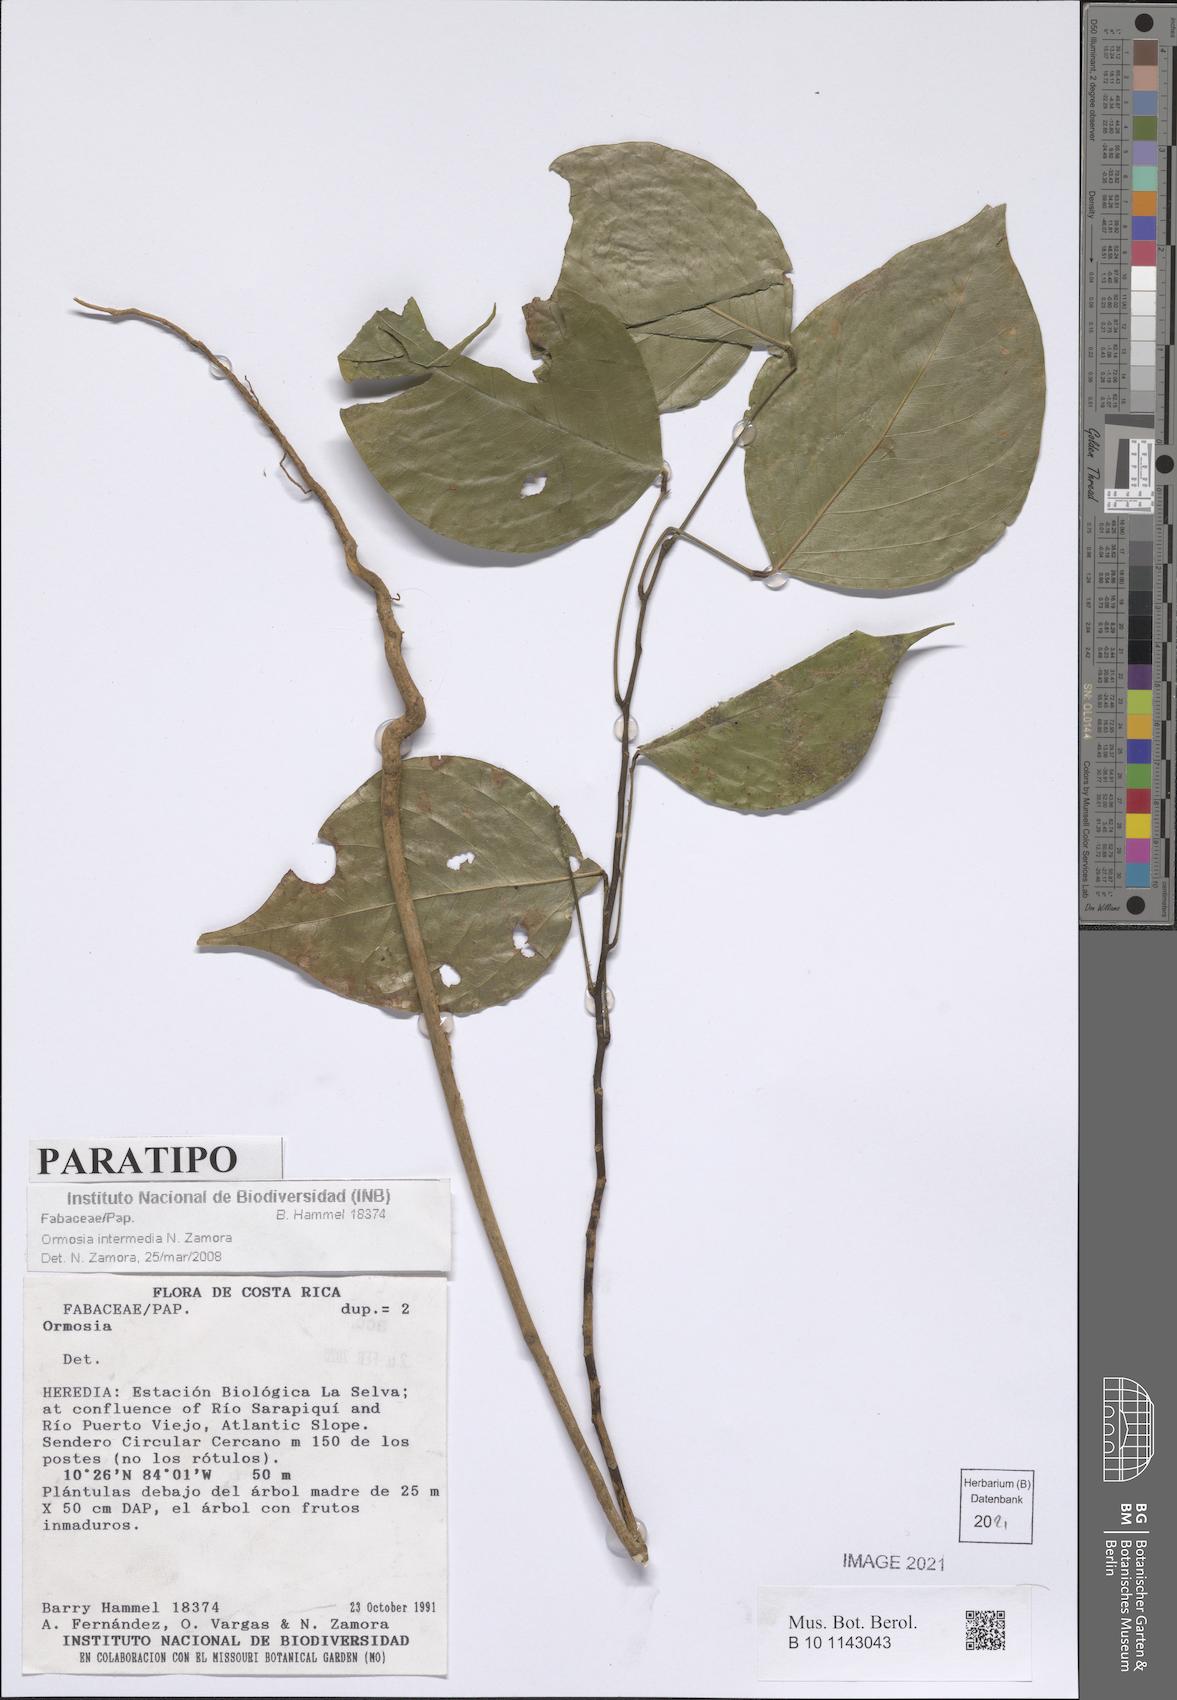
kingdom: Plantae
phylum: Tracheophyta
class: Magnoliopsida
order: Fabales
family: Fabaceae
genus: Ormosia
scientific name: Ormosia intermedia
